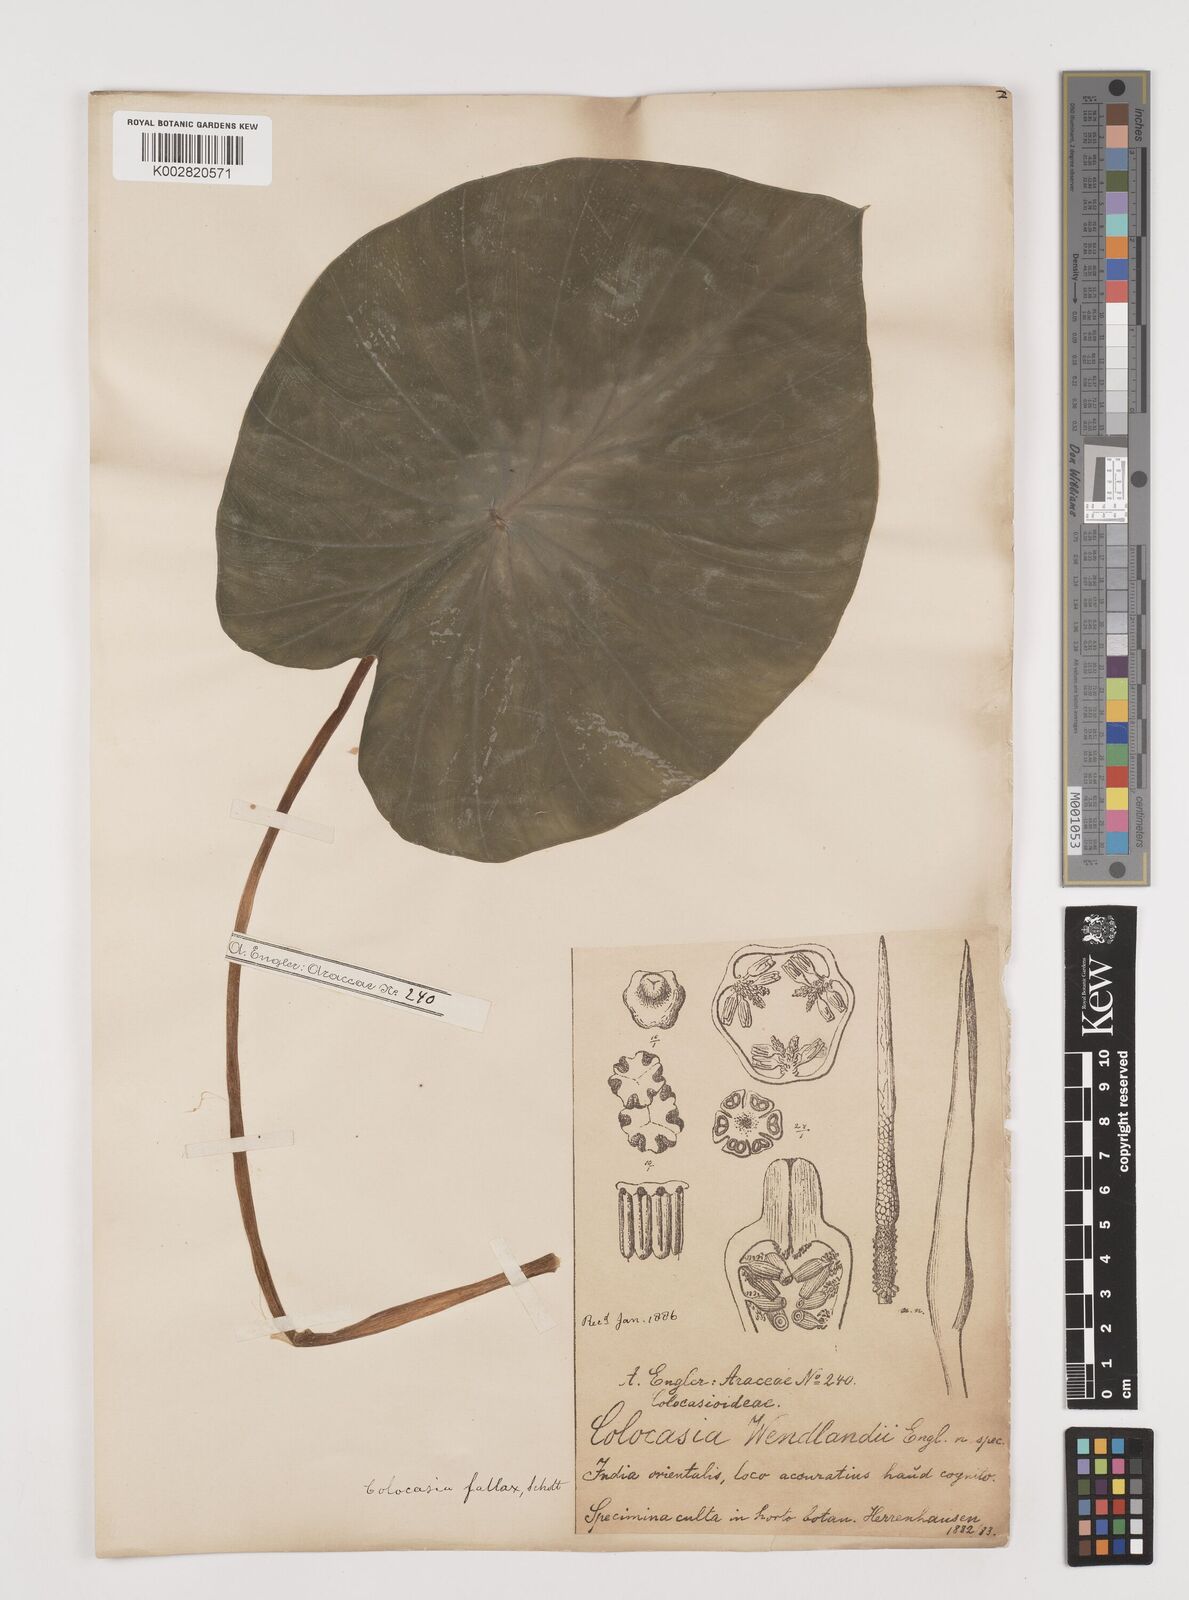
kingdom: Plantae
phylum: Tracheophyta
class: Liliopsida
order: Alismatales
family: Araceae
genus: Colocasia
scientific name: Colocasia fallax
